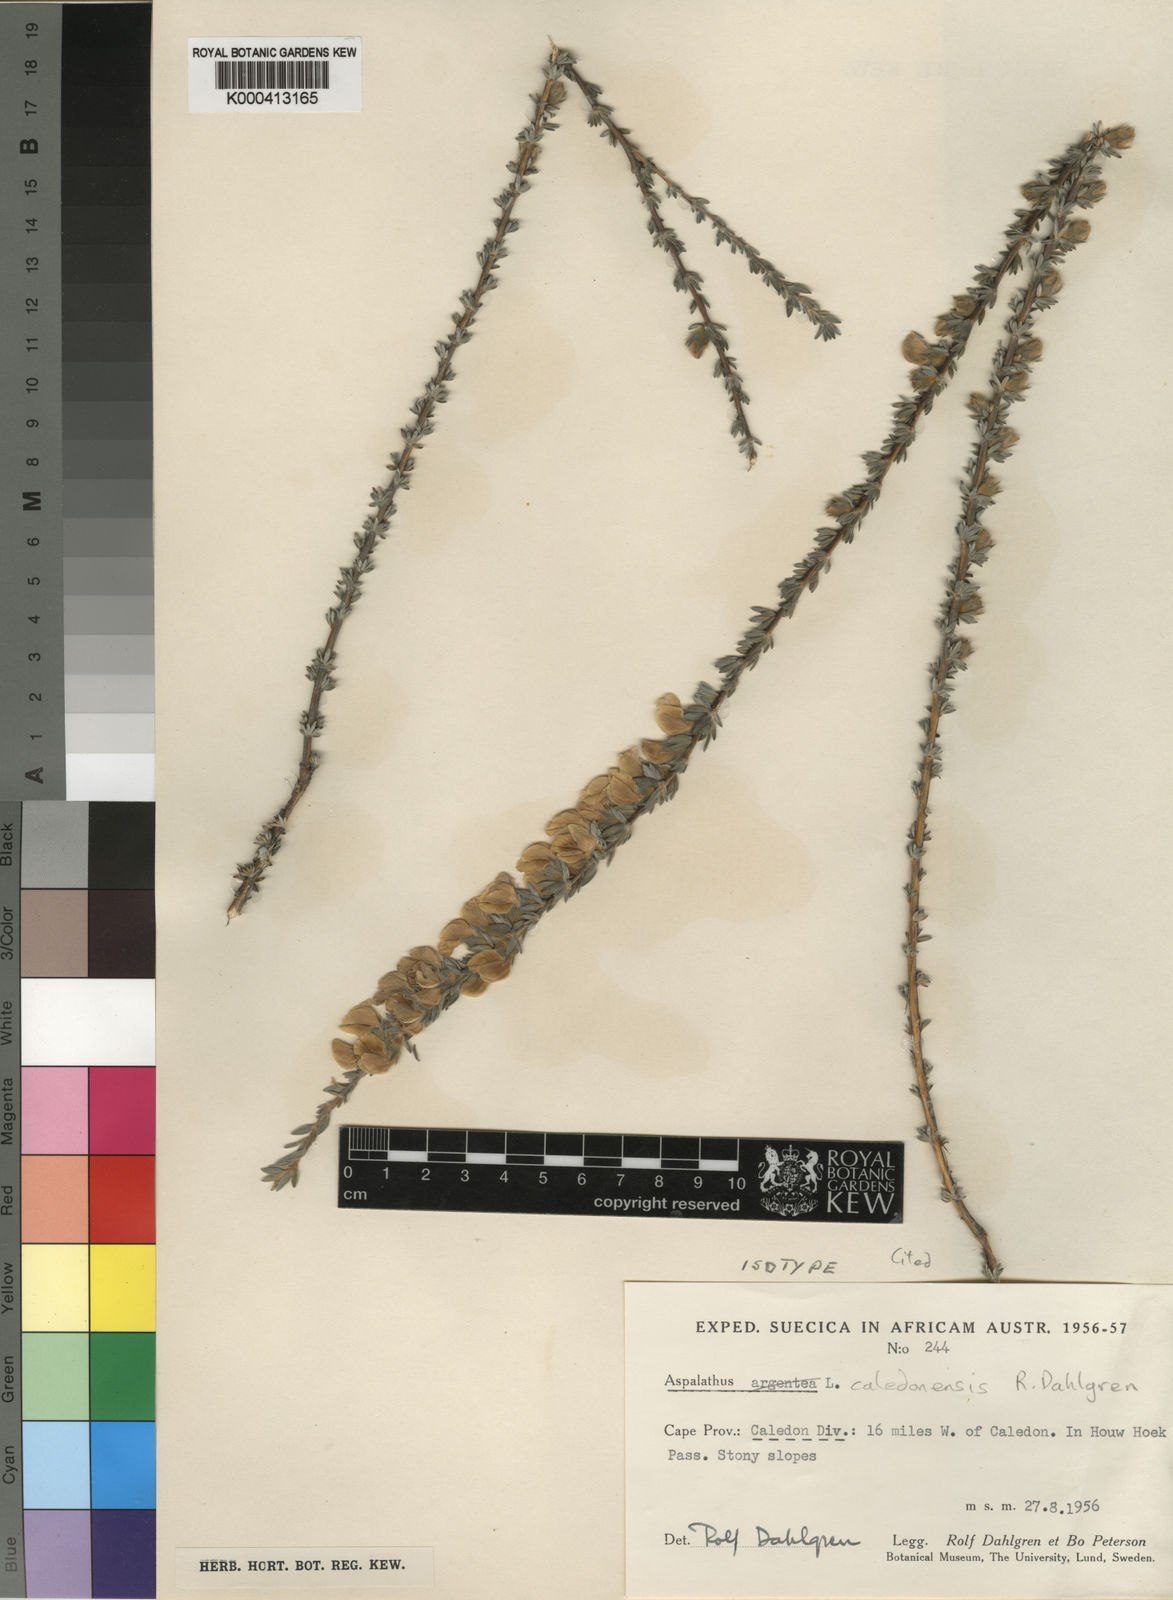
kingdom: Plantae
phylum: Tracheophyta
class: Magnoliopsida
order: Fabales
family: Fabaceae
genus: Aspalathus
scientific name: Aspalathus caledonensis
